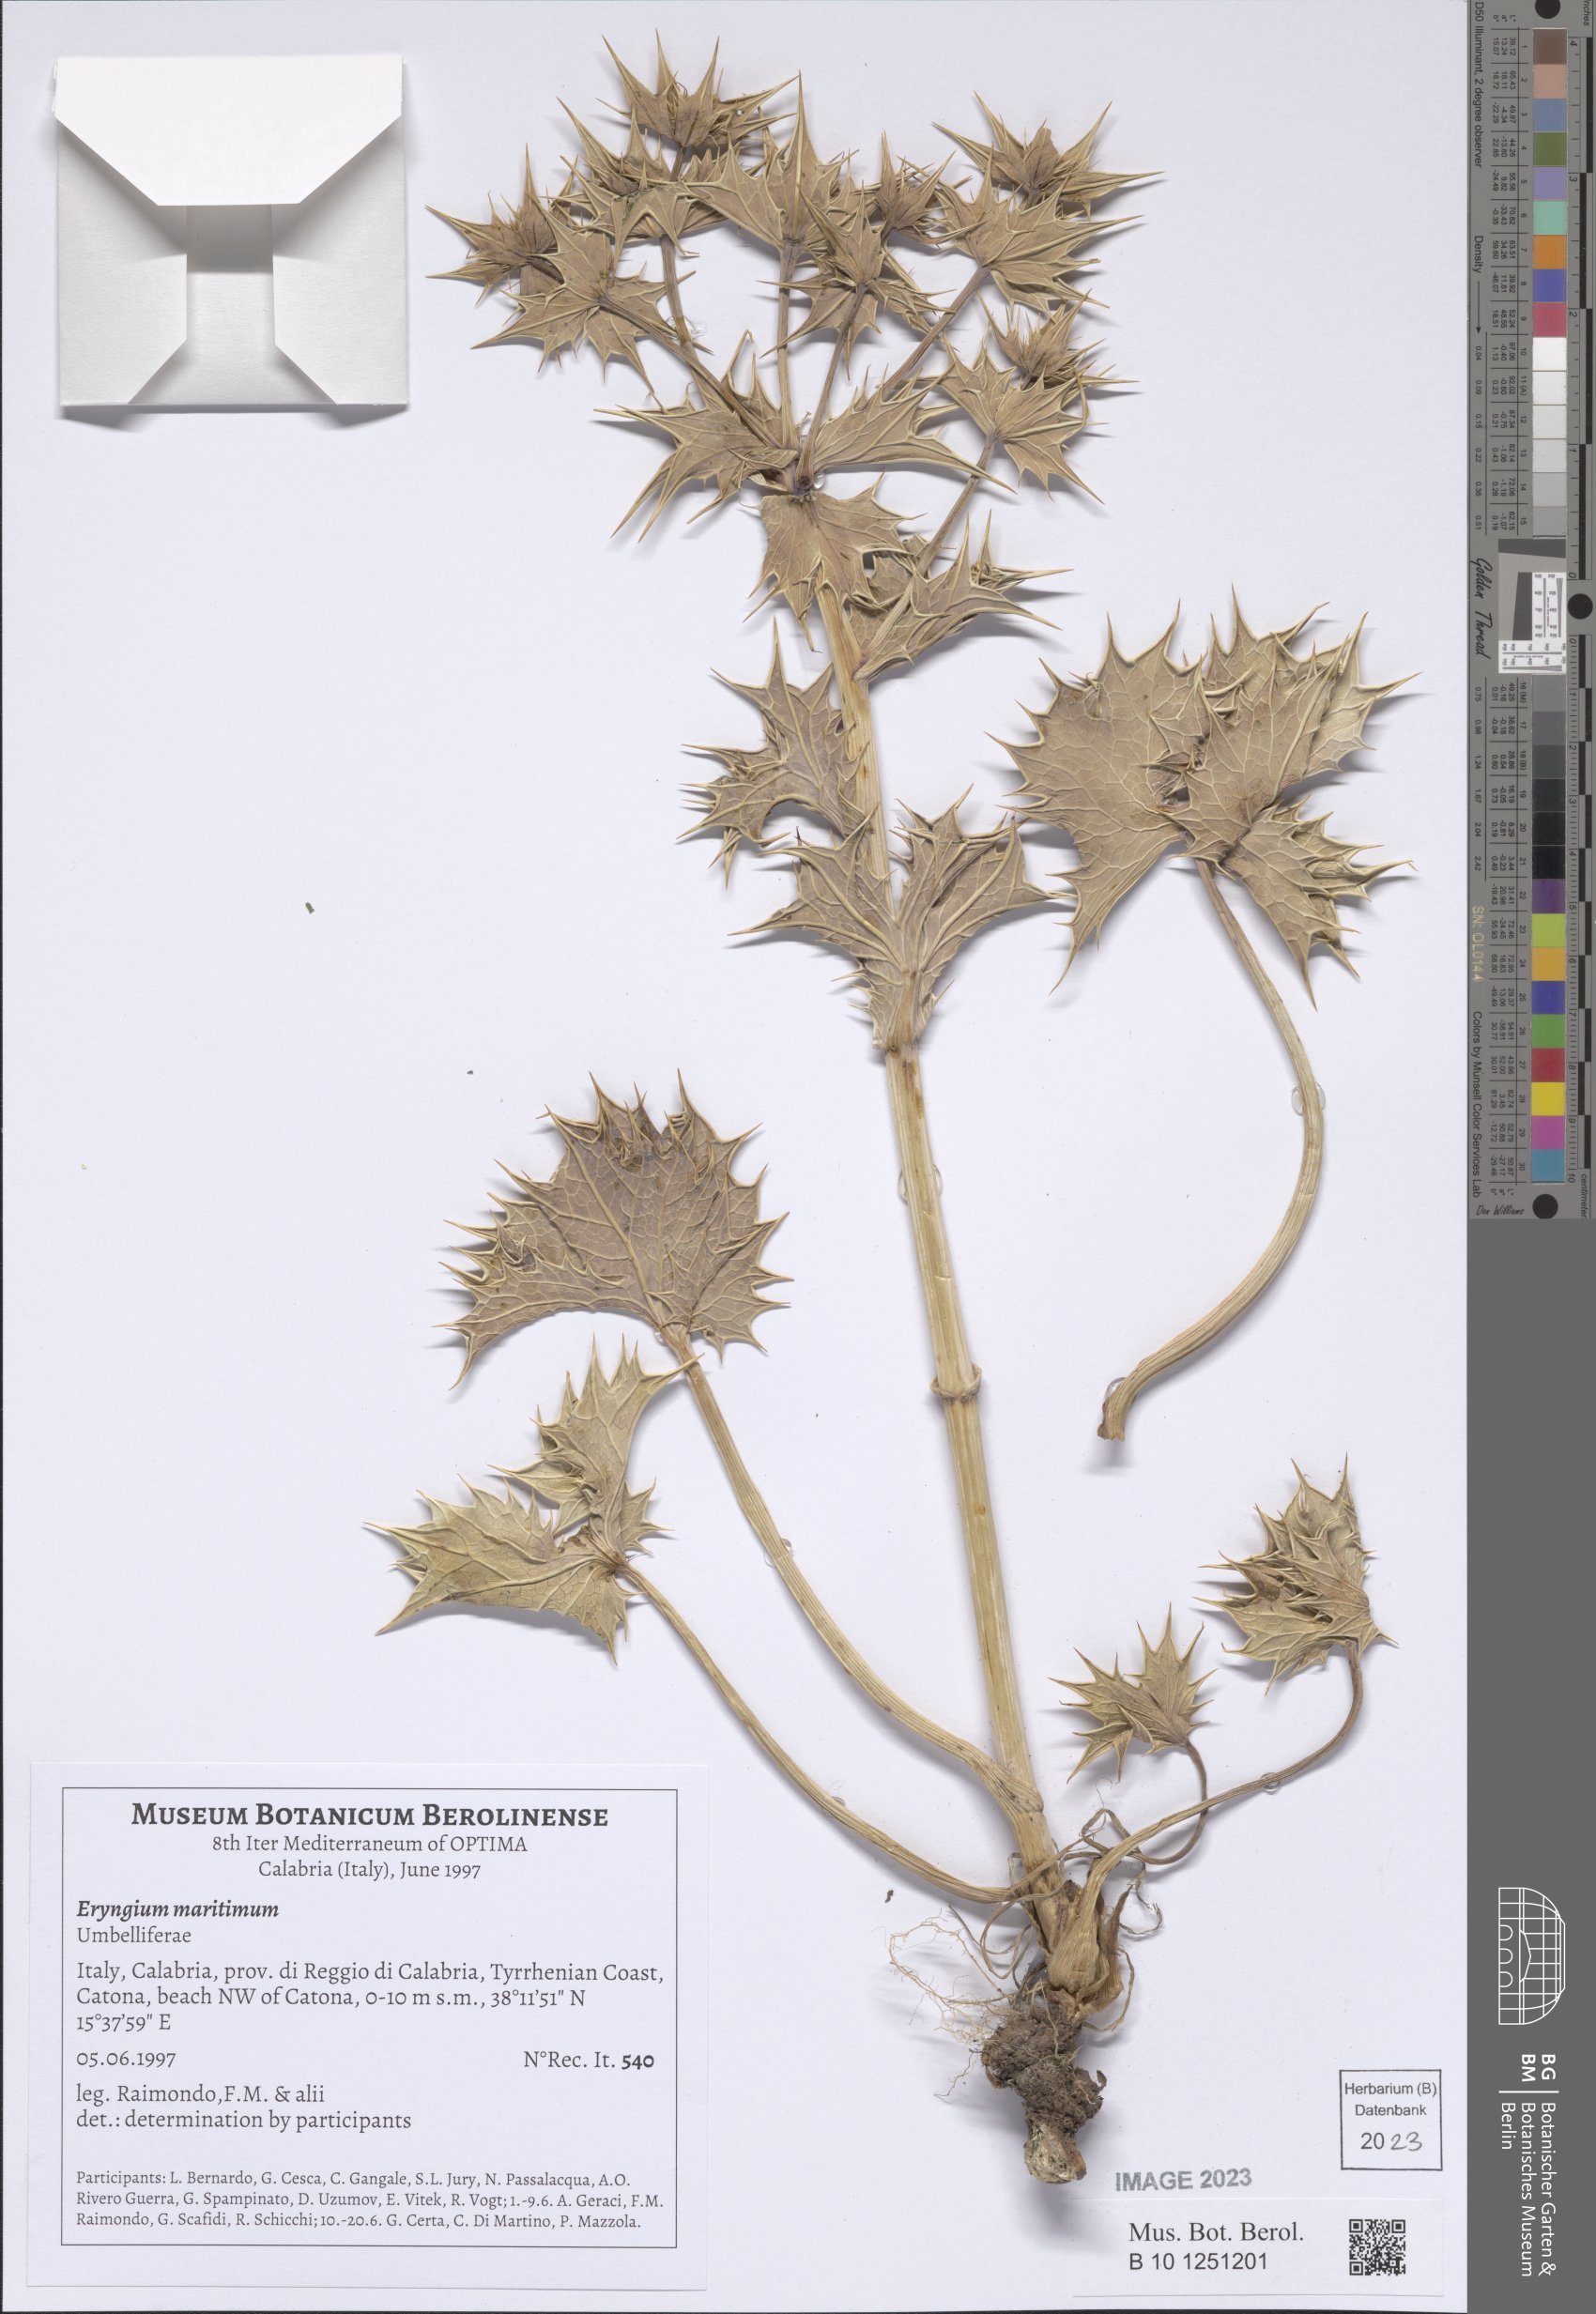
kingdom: Plantae
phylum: Tracheophyta
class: Magnoliopsida
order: Apiales
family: Apiaceae
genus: Eryngium
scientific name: Eryngium maritimum
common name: Sea-holly
